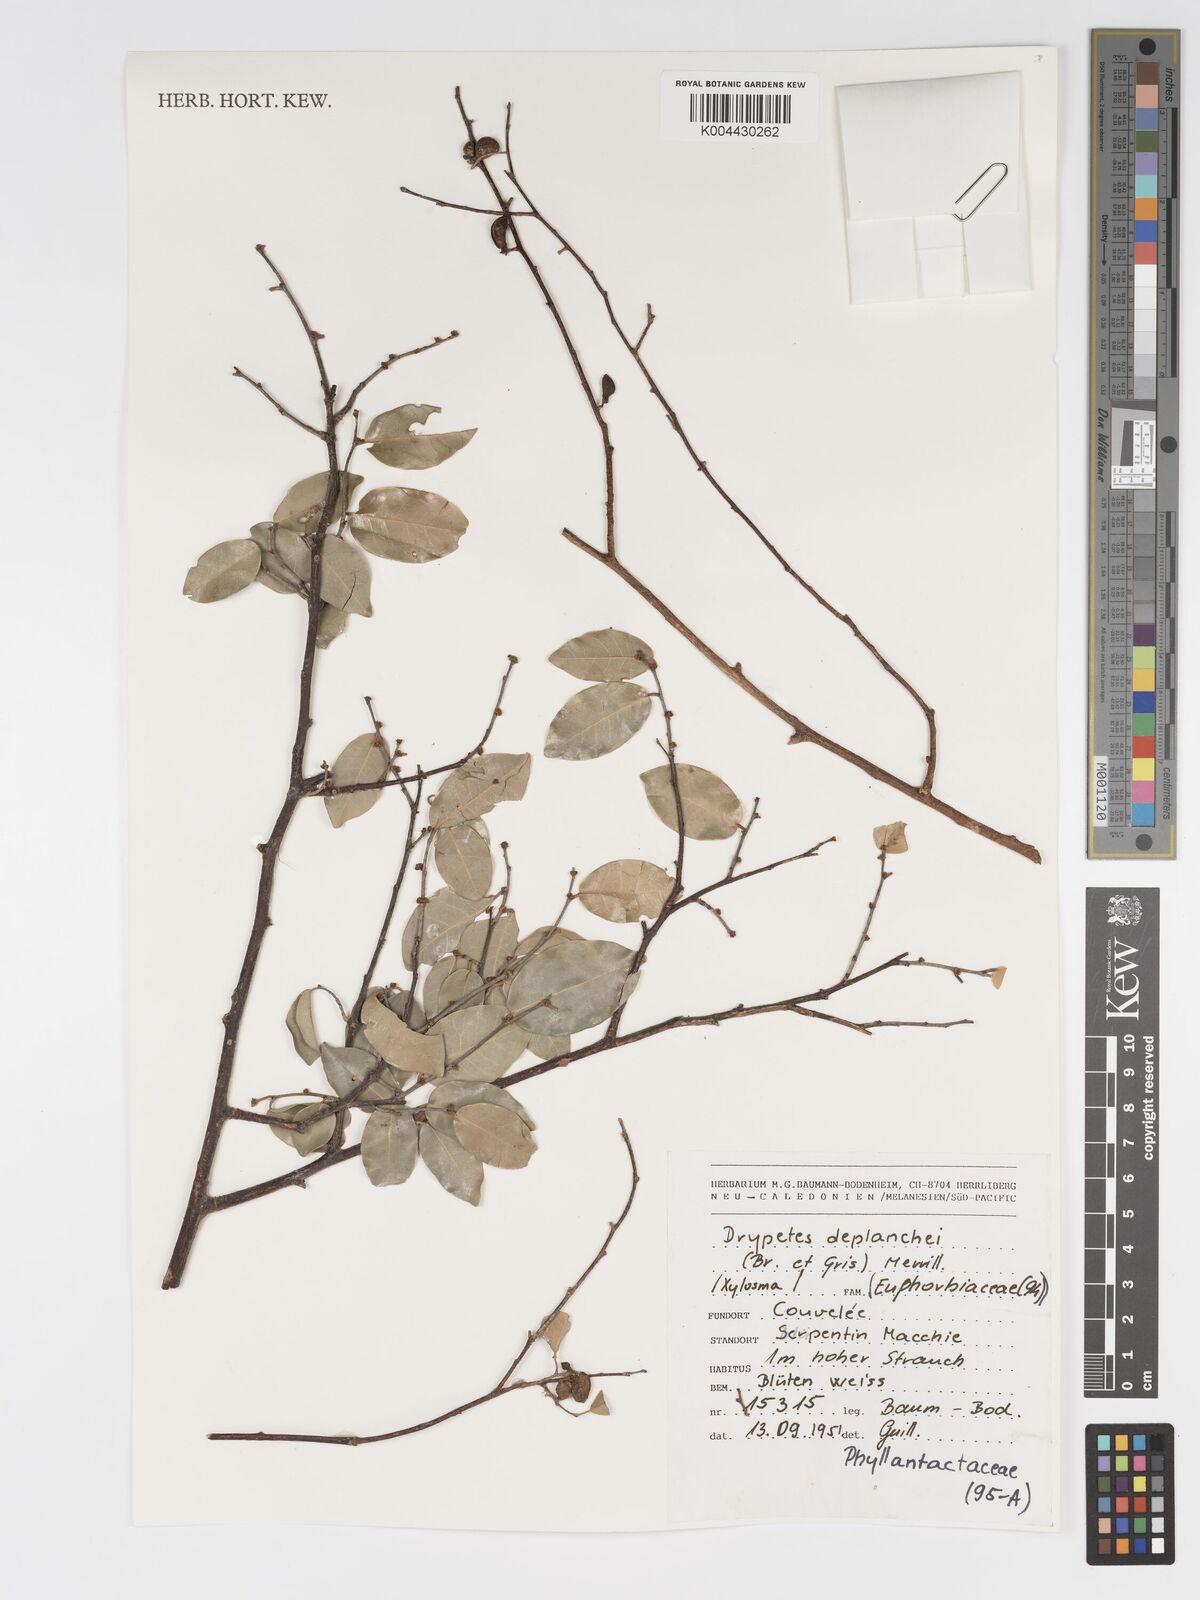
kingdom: Plantae
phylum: Tracheophyta
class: Magnoliopsida
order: Malpighiales
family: Putranjivaceae
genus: Drypetes
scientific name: Drypetes deplanchei
